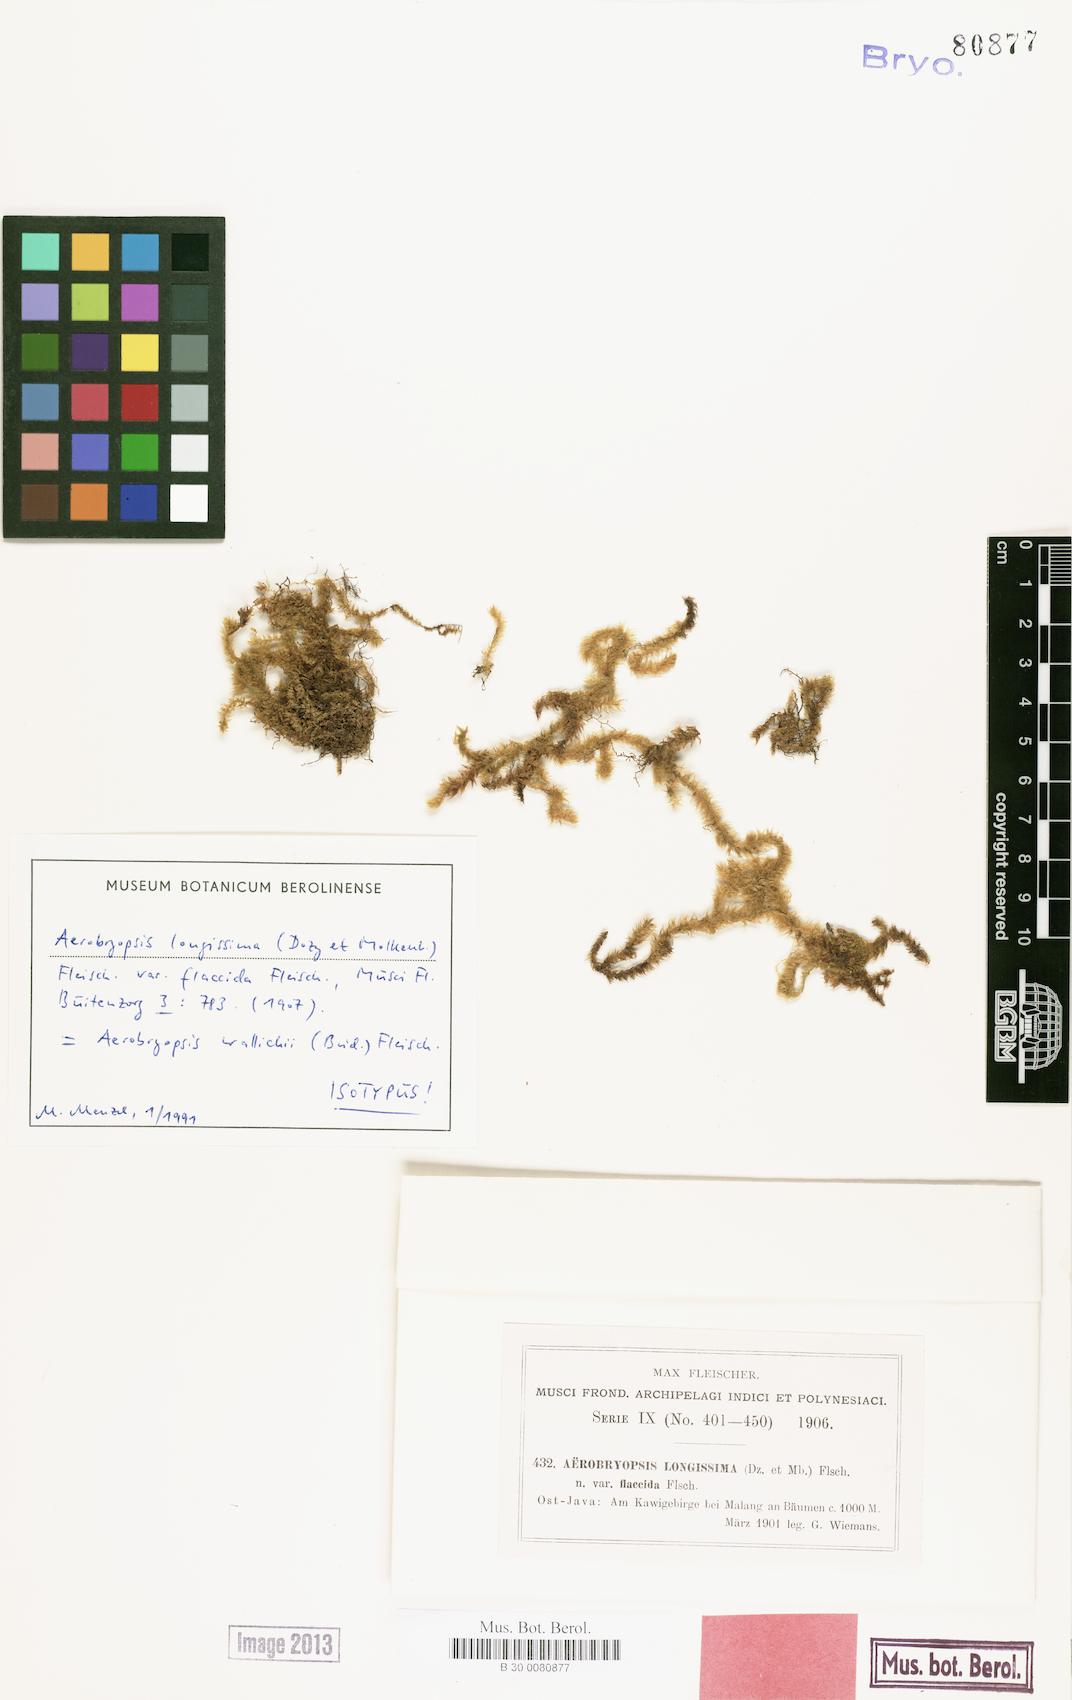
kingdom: Plantae
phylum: Bryophyta
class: Bryopsida
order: Hypnales
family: Meteoriaceae
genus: Pseudotrachypus
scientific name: Pseudotrachypus wallichii
